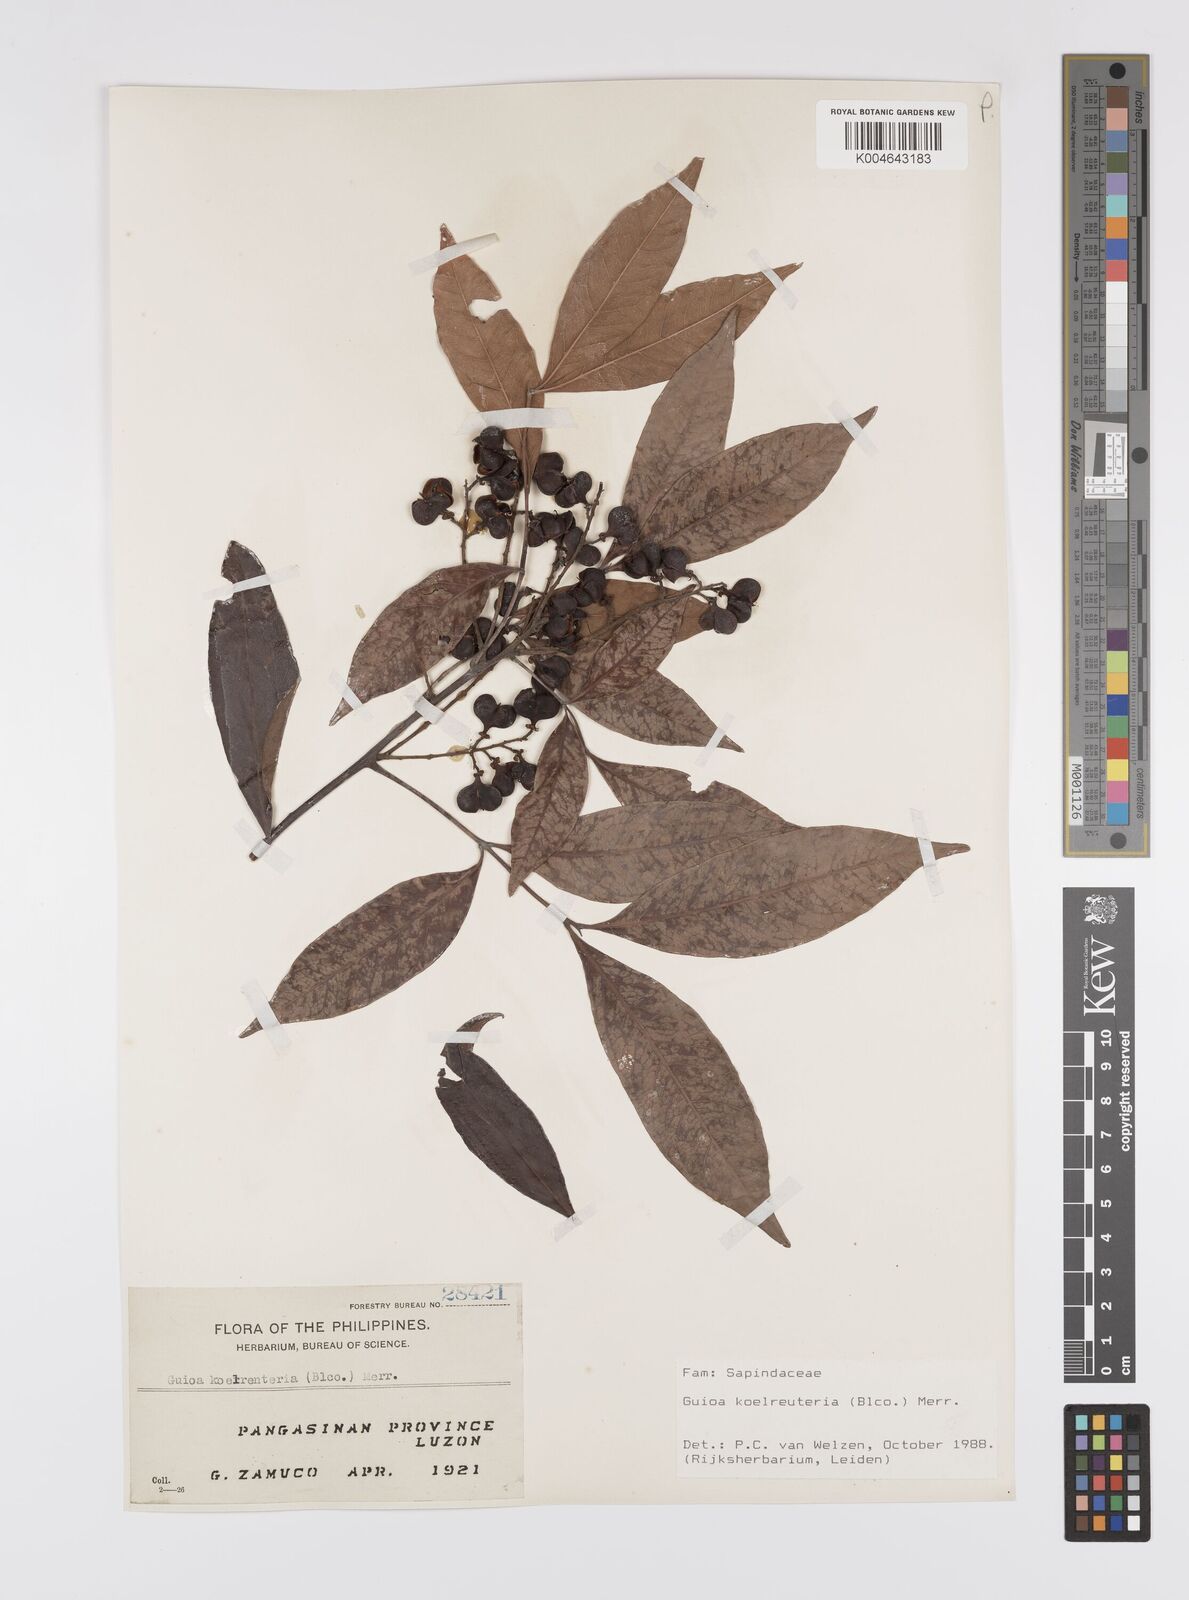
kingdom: Plantae
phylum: Tracheophyta
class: Magnoliopsida
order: Sapindales
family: Sapindaceae
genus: Guioa
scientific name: Guioa koelreuteria
